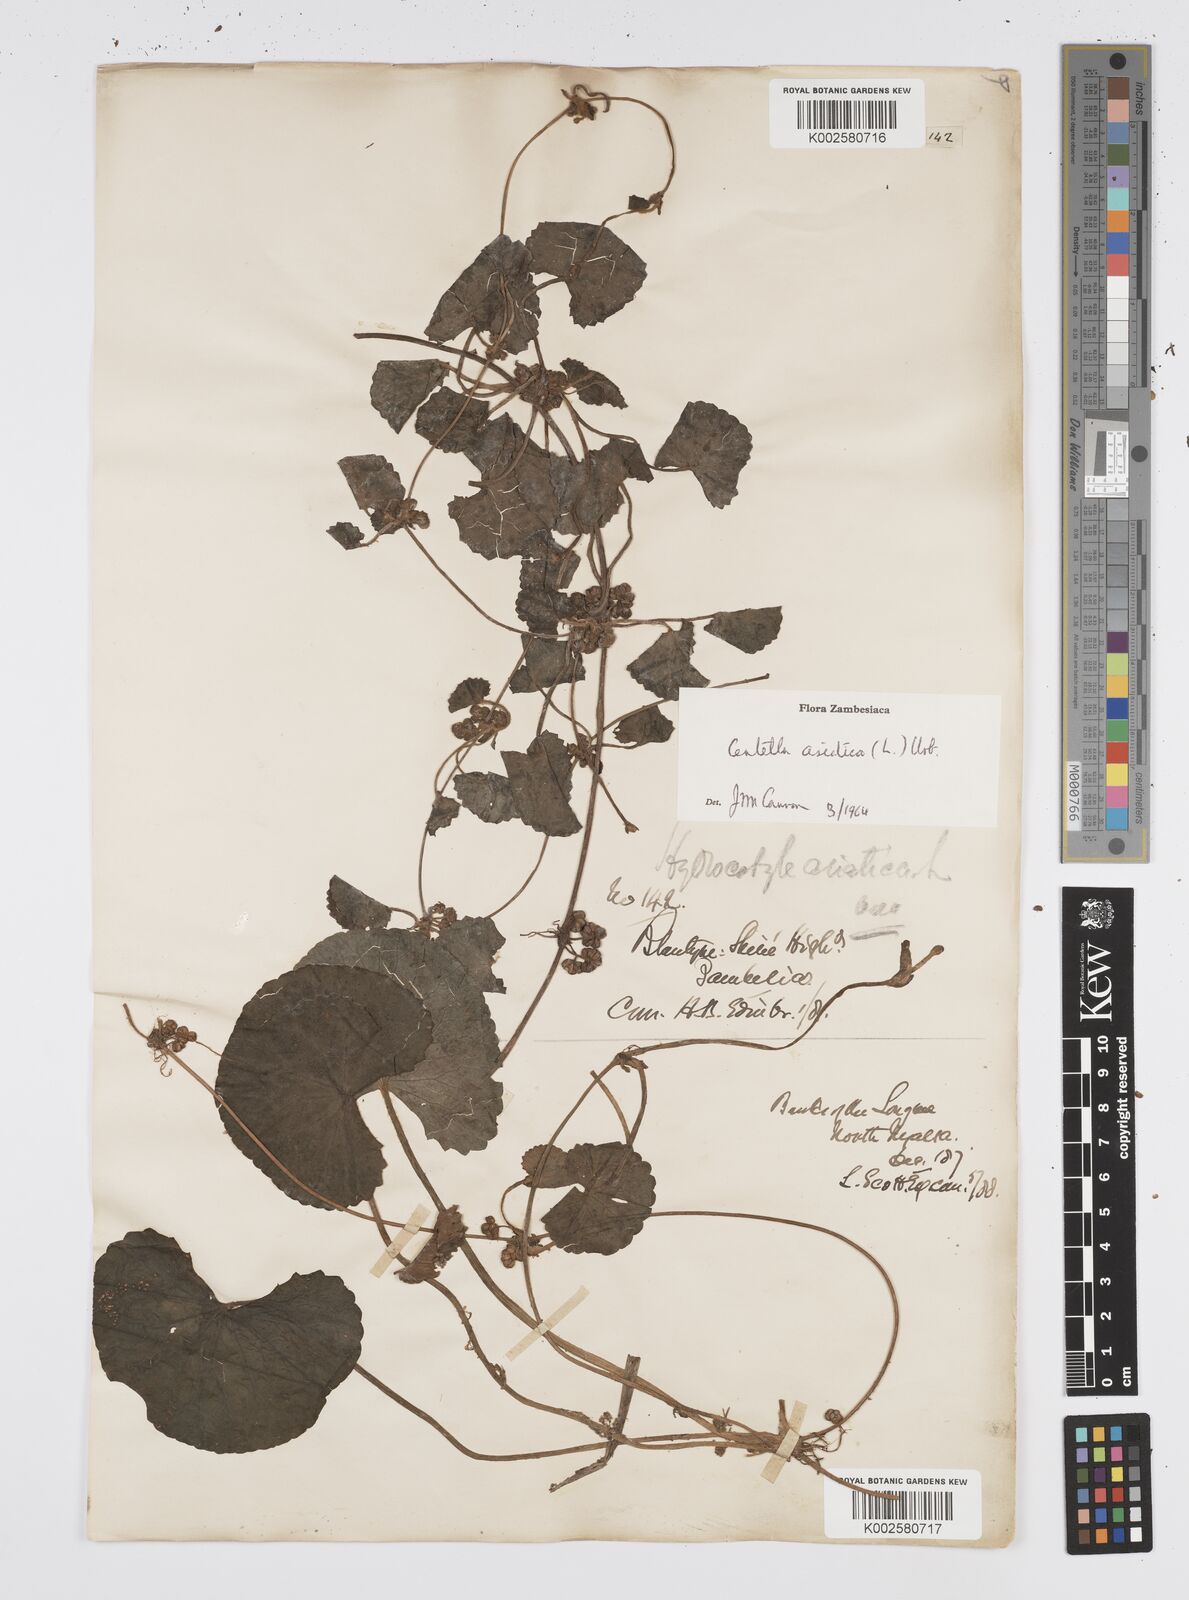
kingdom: Plantae
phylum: Tracheophyta
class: Magnoliopsida
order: Apiales
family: Apiaceae
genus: Centella
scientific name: Centella asiatica
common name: Spadeleaf
